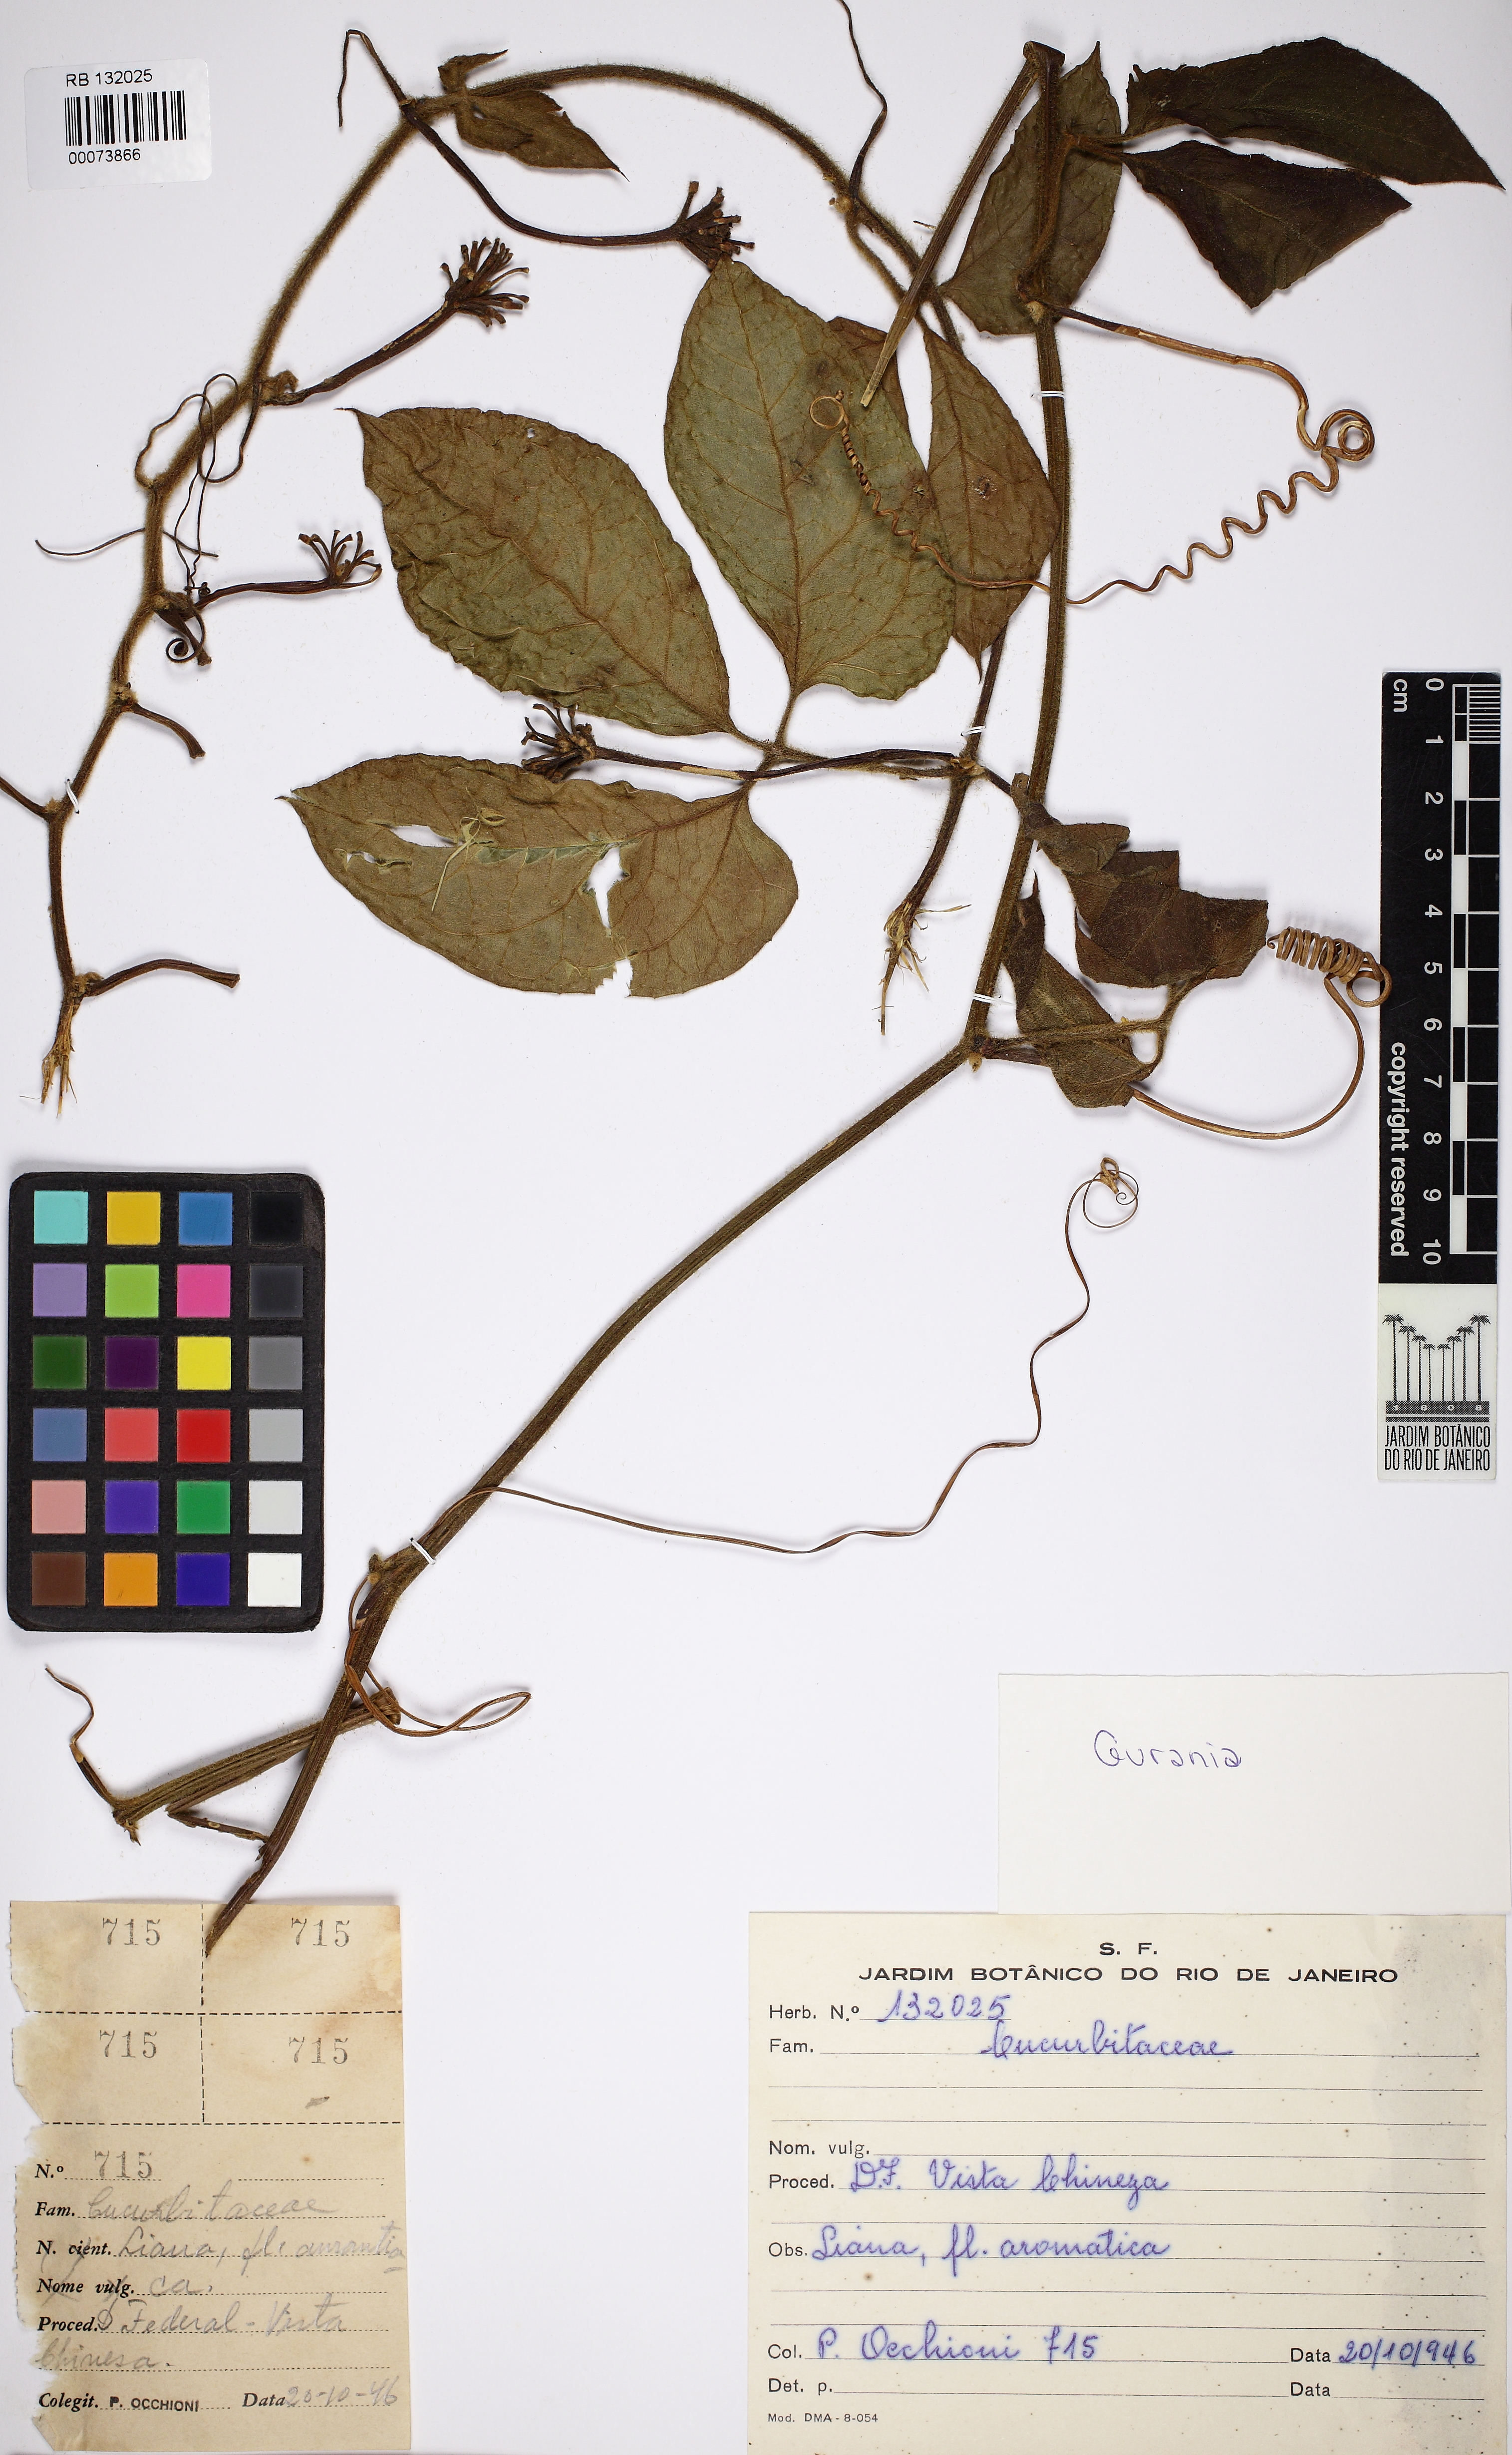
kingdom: Plantae
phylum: Tracheophyta
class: Magnoliopsida
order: Cucurbitales
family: Cucurbitaceae
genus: Gurania
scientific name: Gurania
